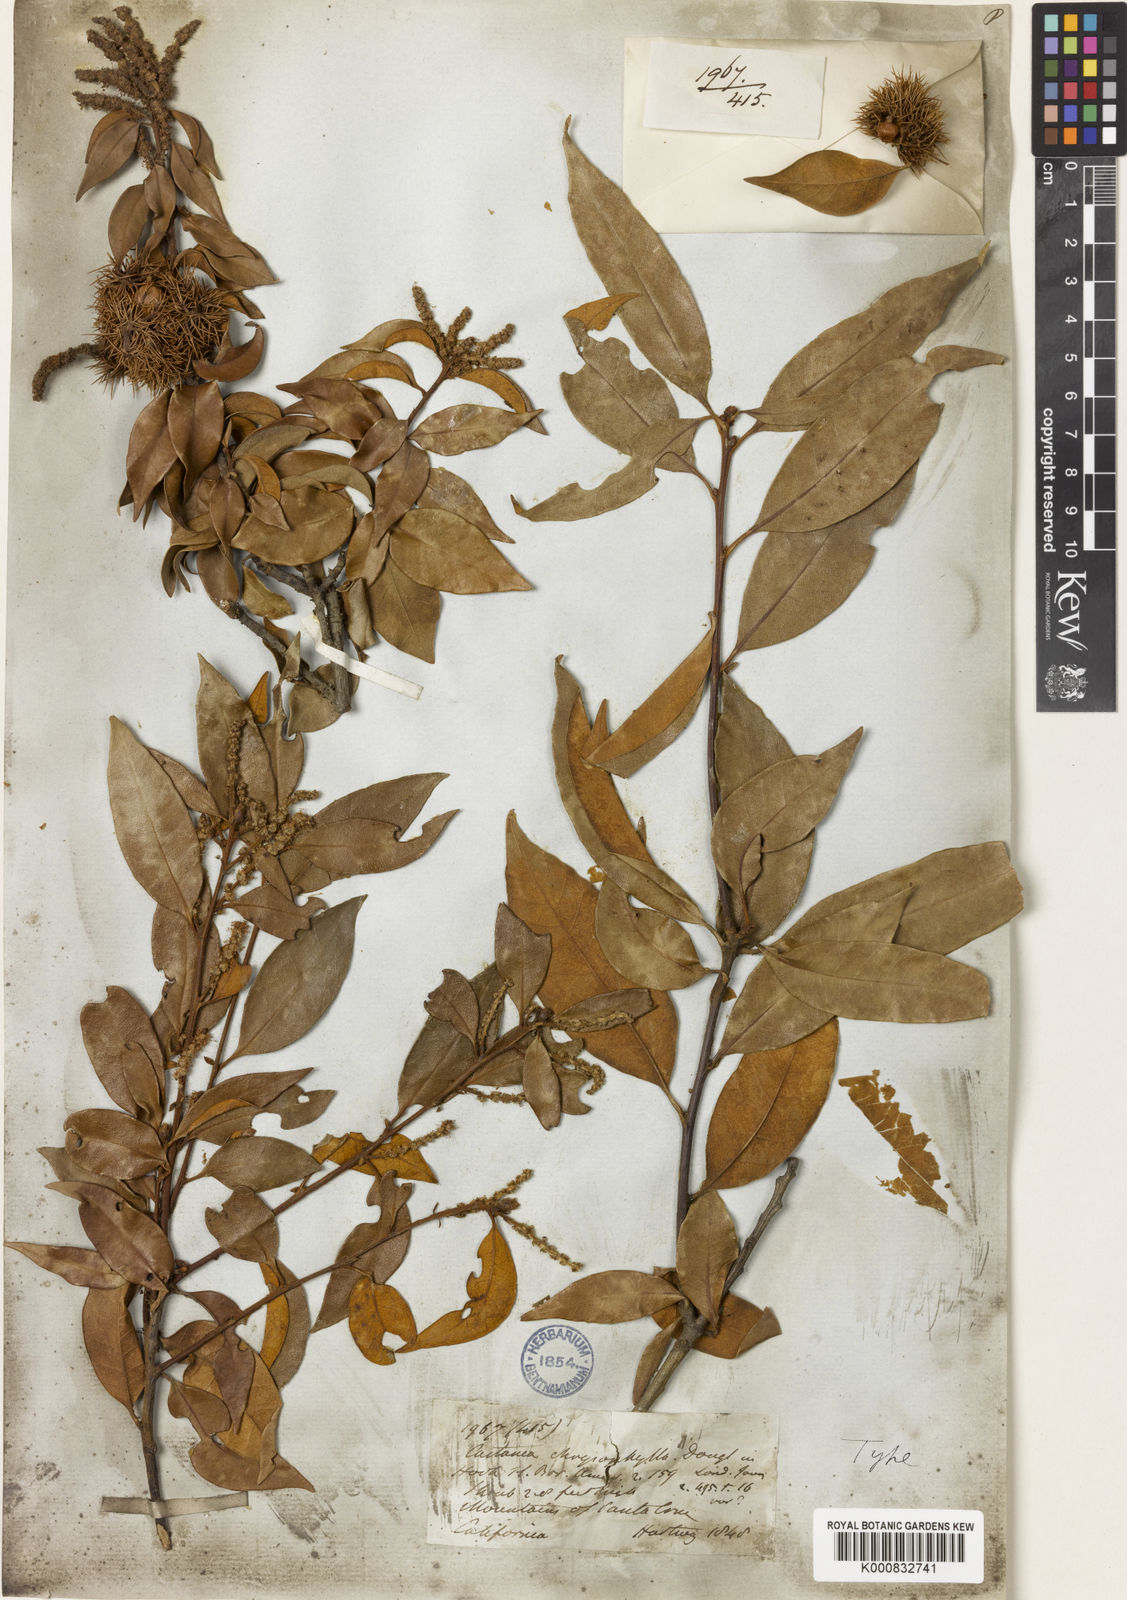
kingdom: Plantae
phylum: Tracheophyta
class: Magnoliopsida
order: Fagales
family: Fagaceae
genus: Chrysolepis
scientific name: Chrysolepis chrysophylla
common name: Giant chinquapin
